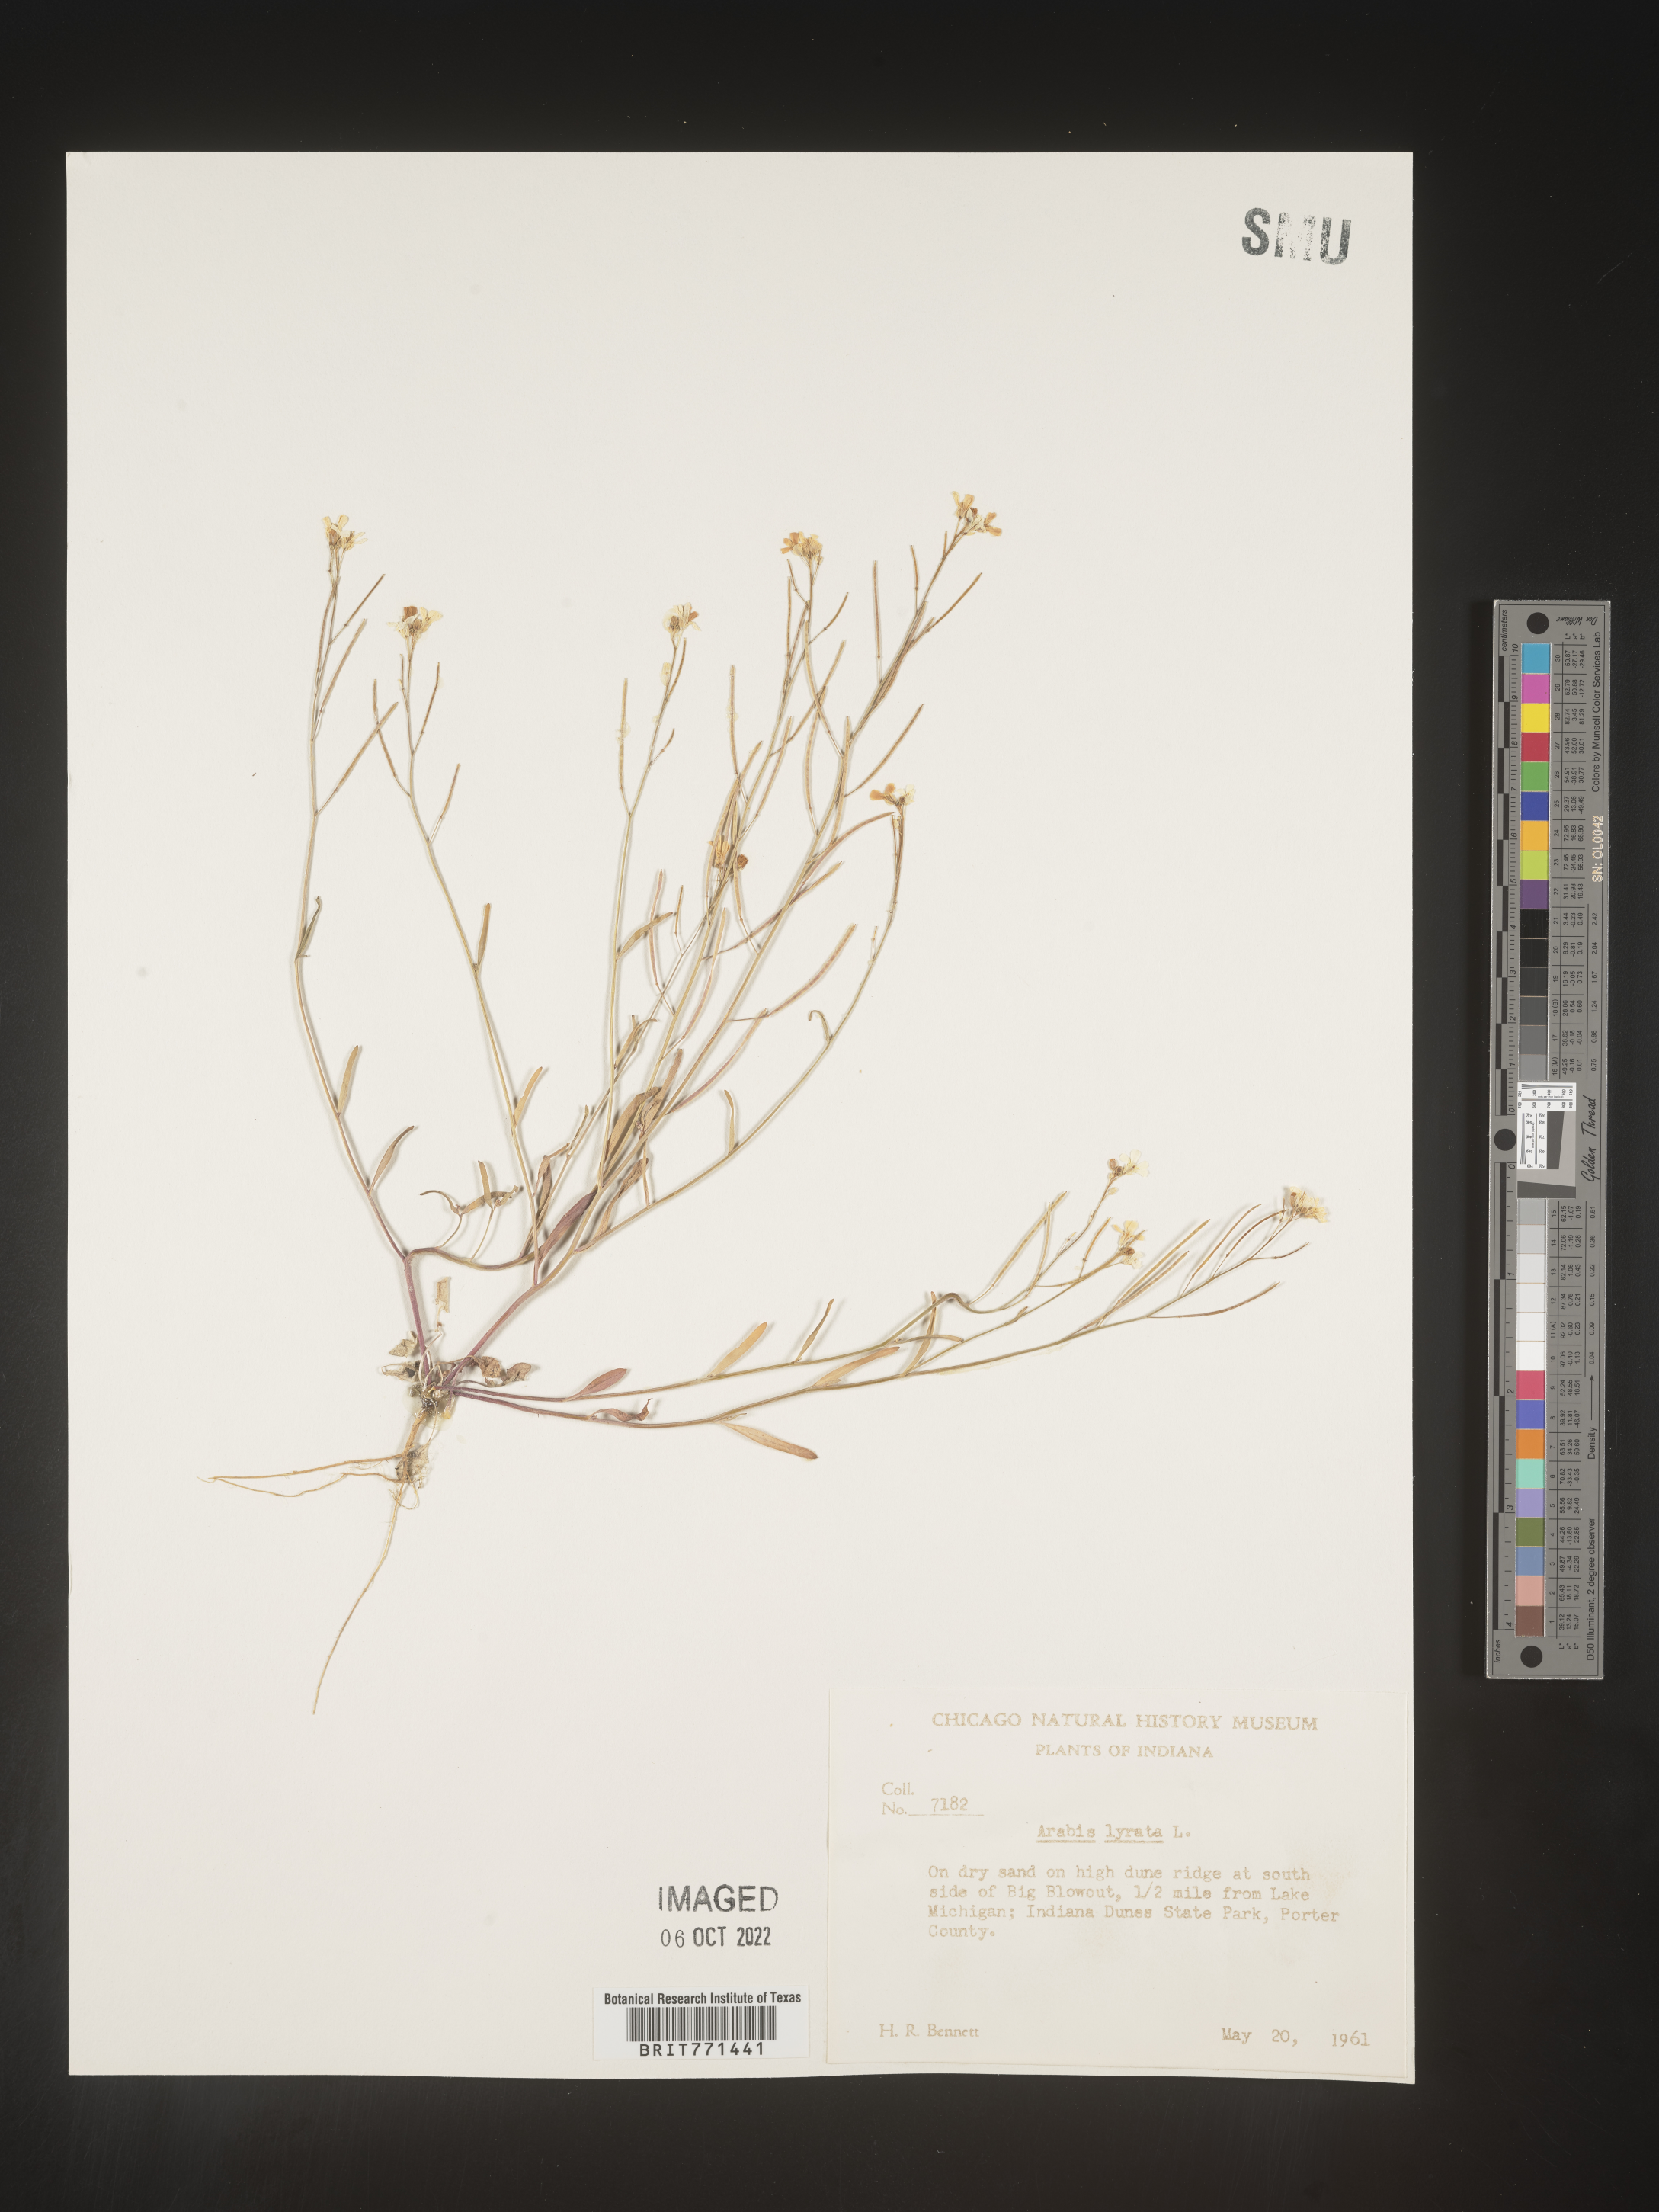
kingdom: Plantae
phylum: Tracheophyta
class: Magnoliopsida
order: Brassicales
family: Brassicaceae
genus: Arabidopsis
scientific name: Arabidopsis lyrata
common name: Lyrate rockcress
